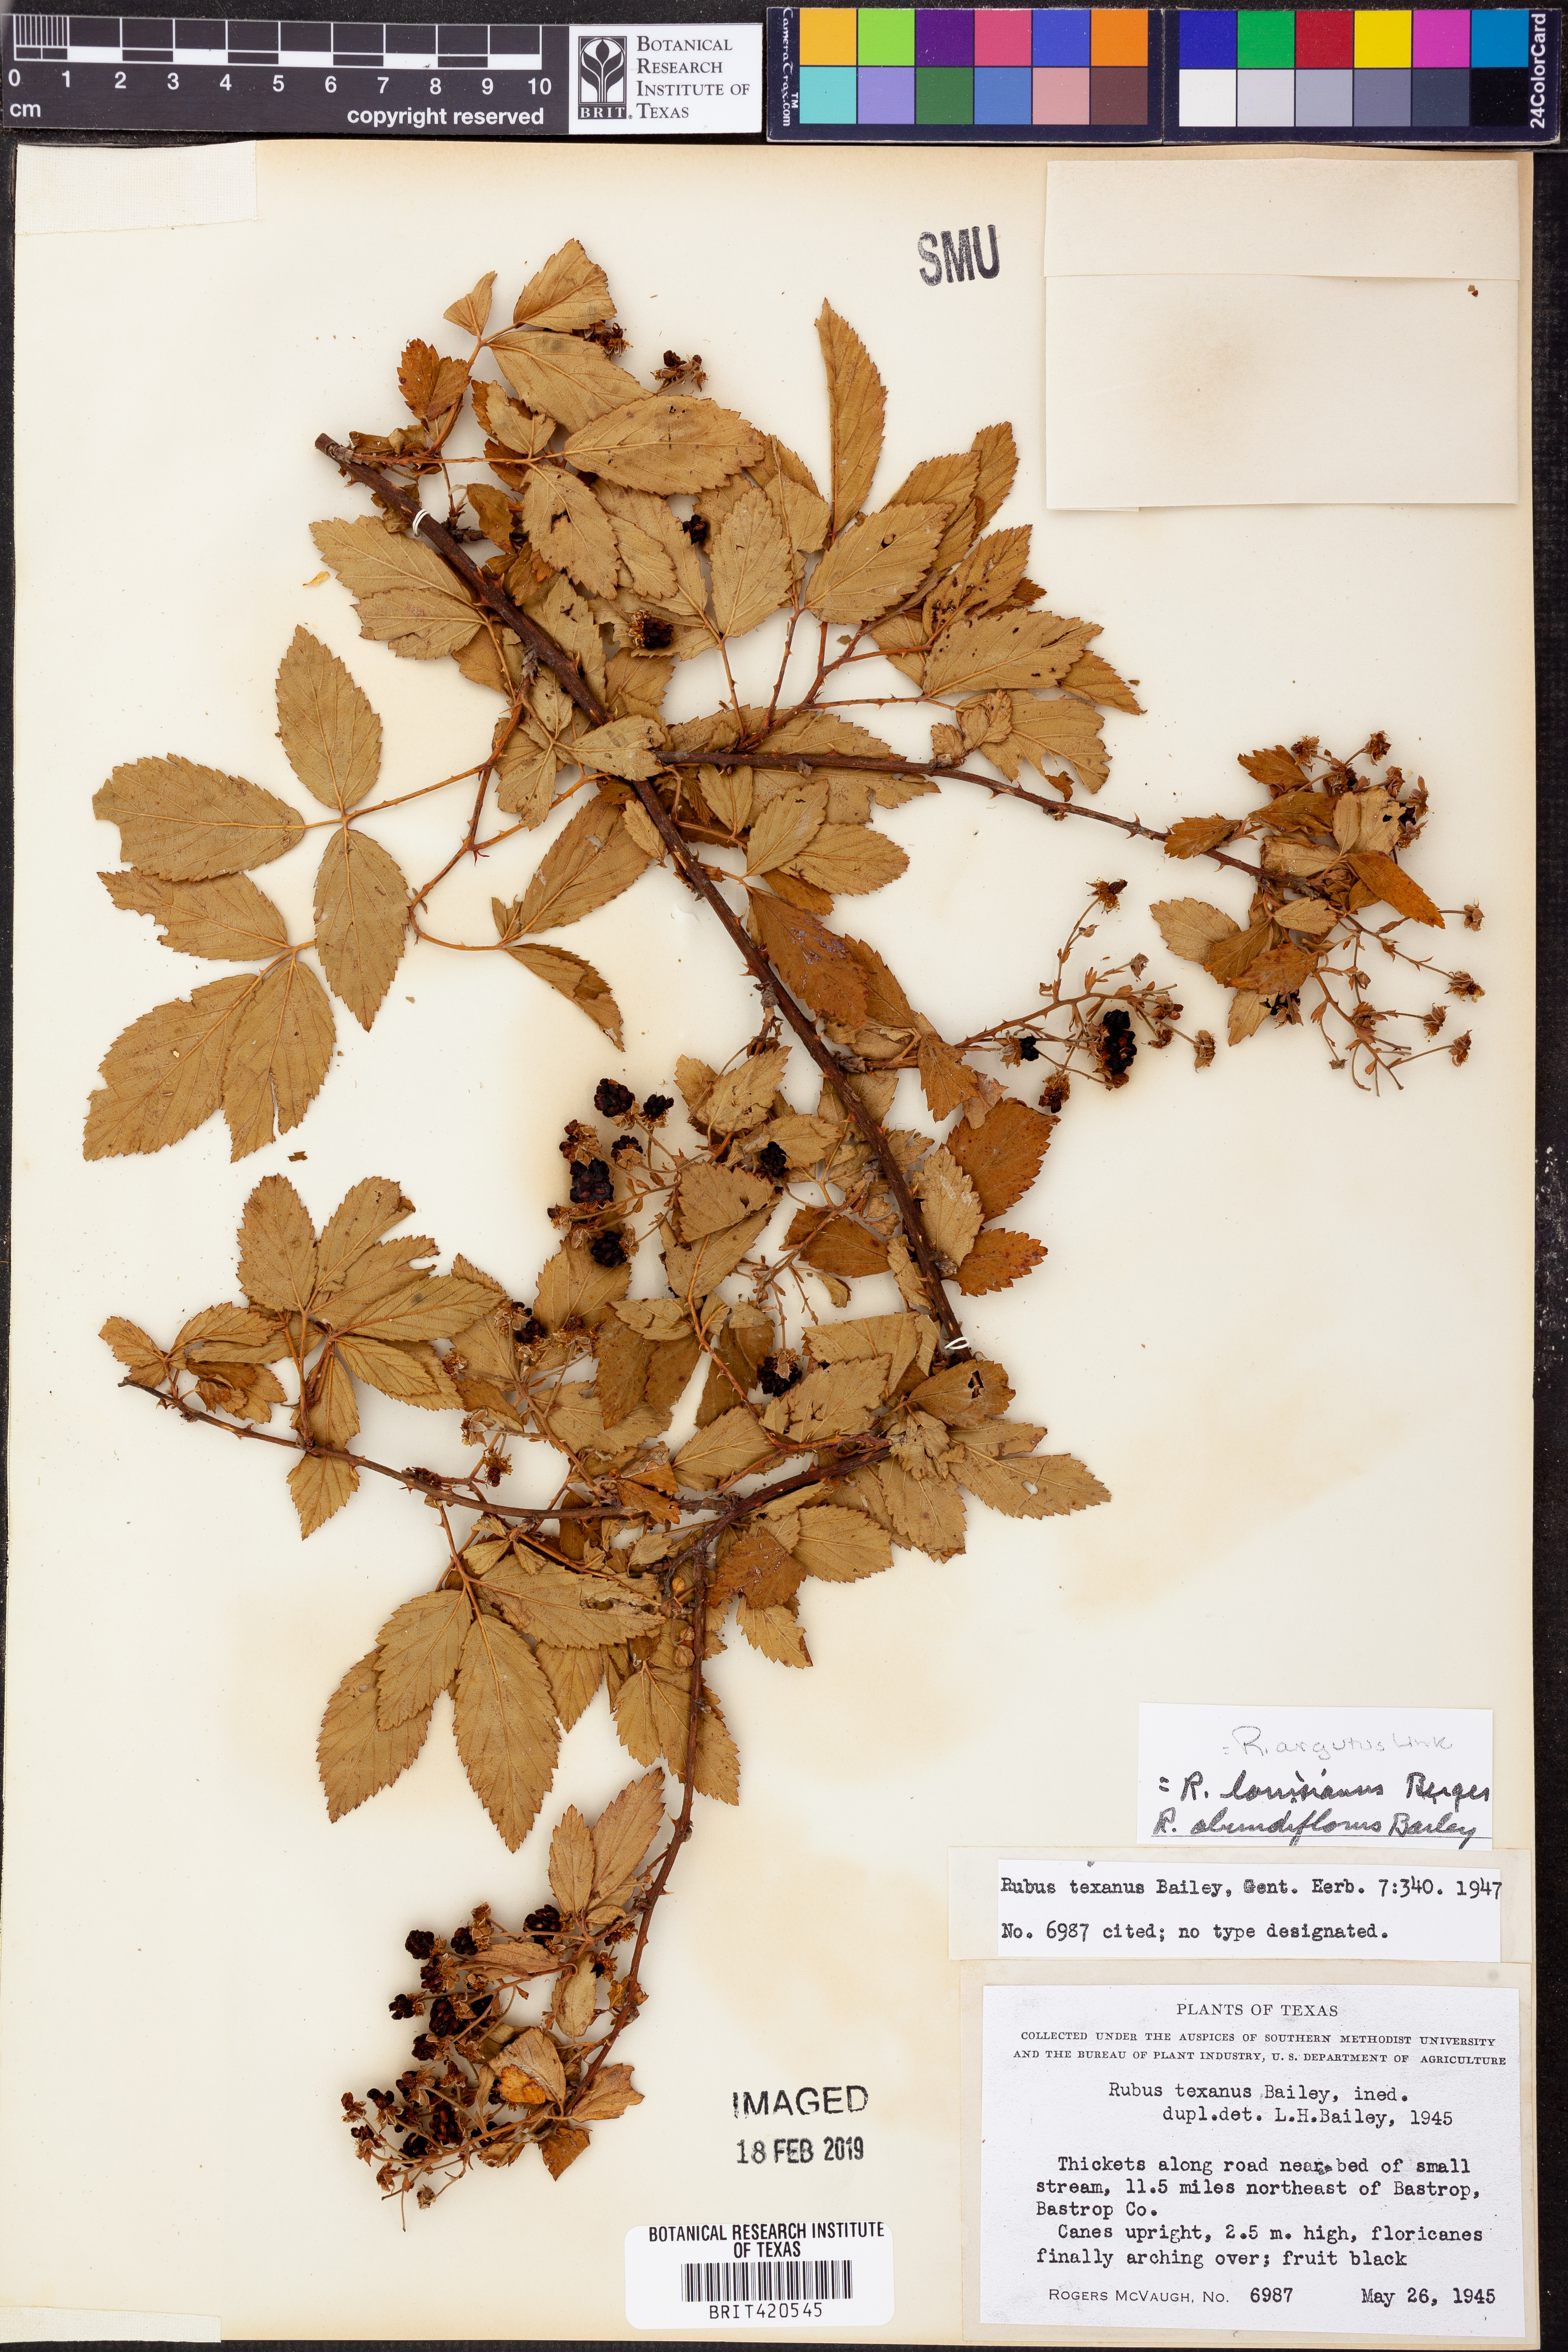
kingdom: Plantae
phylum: Tracheophyta
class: Magnoliopsida
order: Rosales
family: Rosaceae
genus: Rubus
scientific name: Rubus argutus
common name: Sawtooth blackberry
